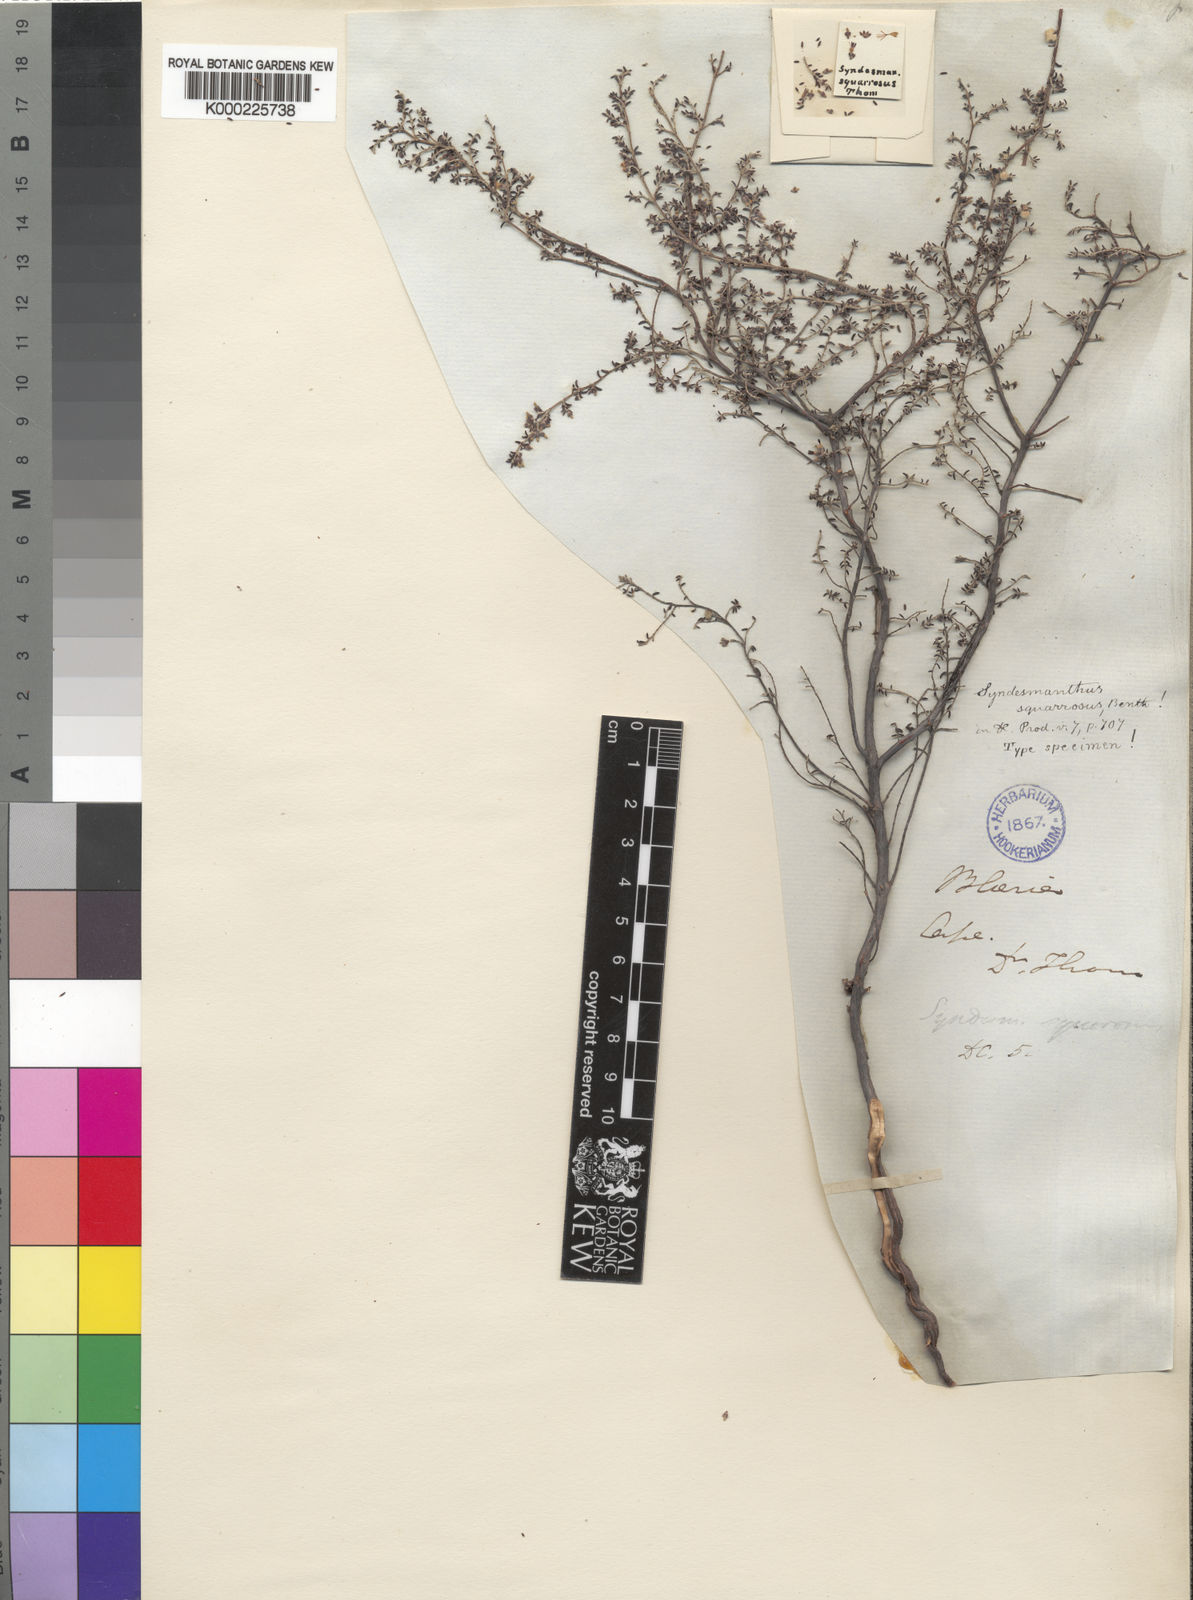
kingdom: Plantae
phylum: Tracheophyta
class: Magnoliopsida
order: Ericales
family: Ericaceae
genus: Erica
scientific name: Erica paucifolia
